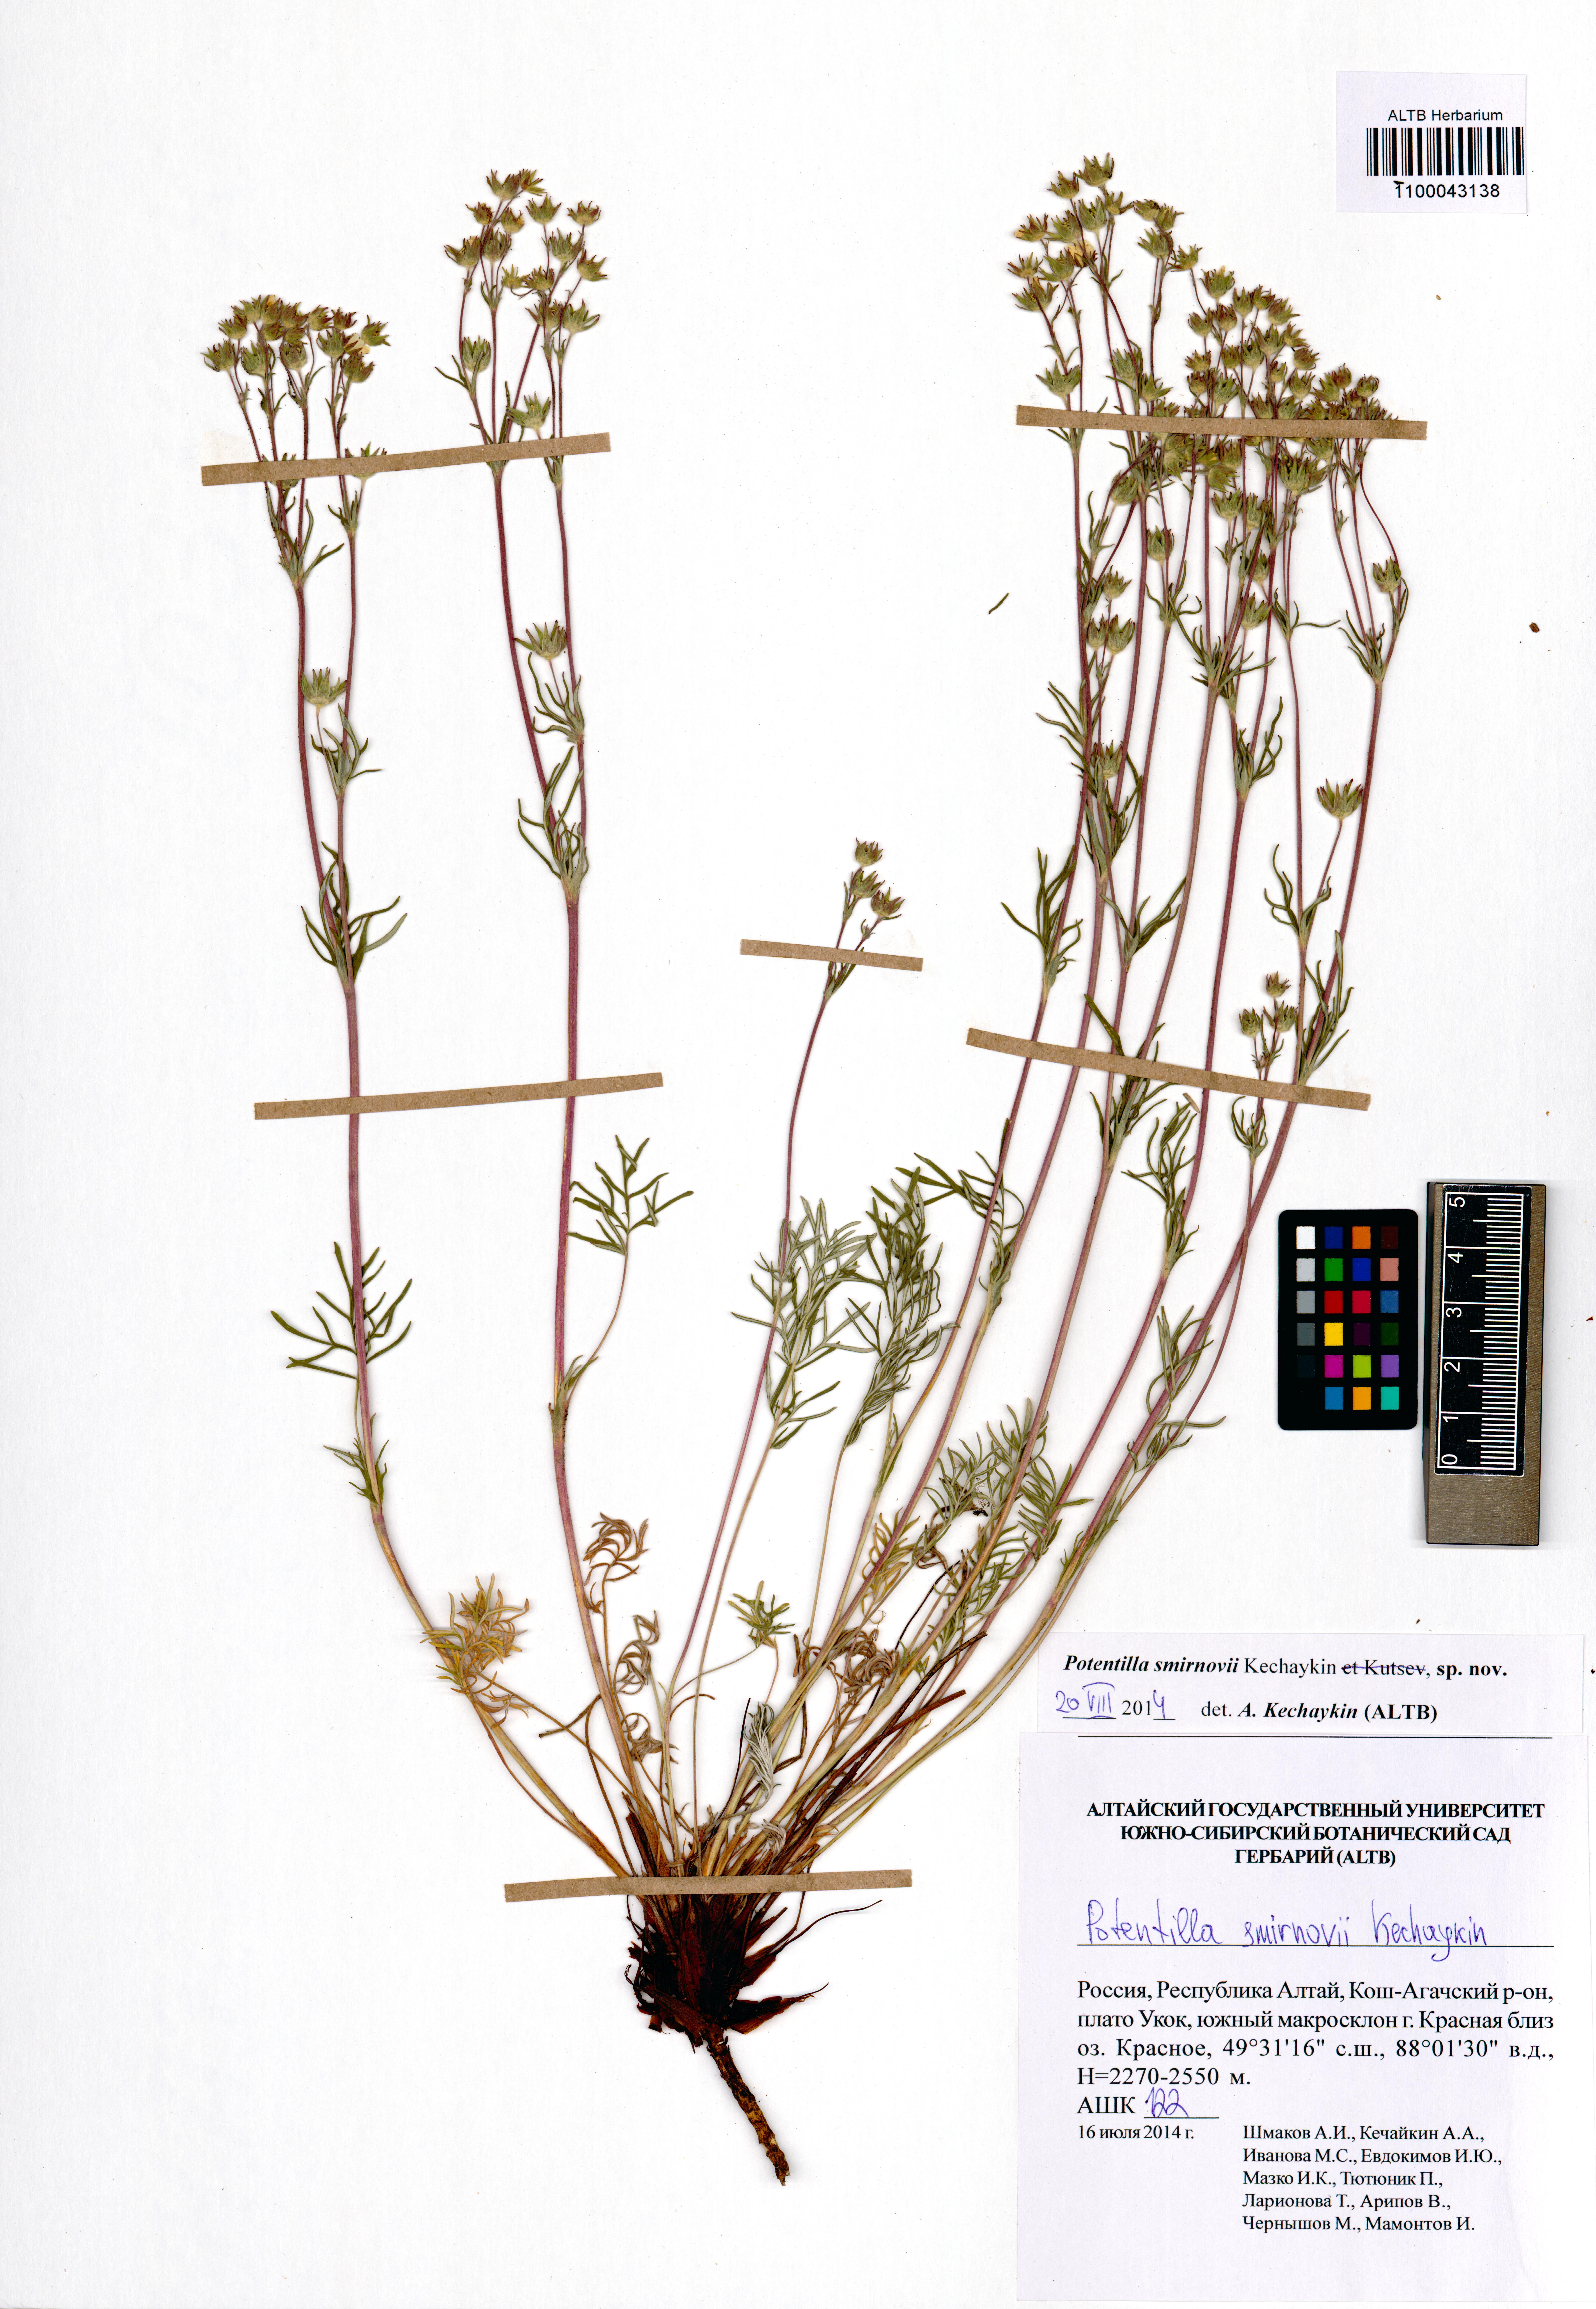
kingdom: Plantae
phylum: Tracheophyta
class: Magnoliopsida
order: Rosales
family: Rosaceae
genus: Potentilla
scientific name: Potentilla smirnovii
